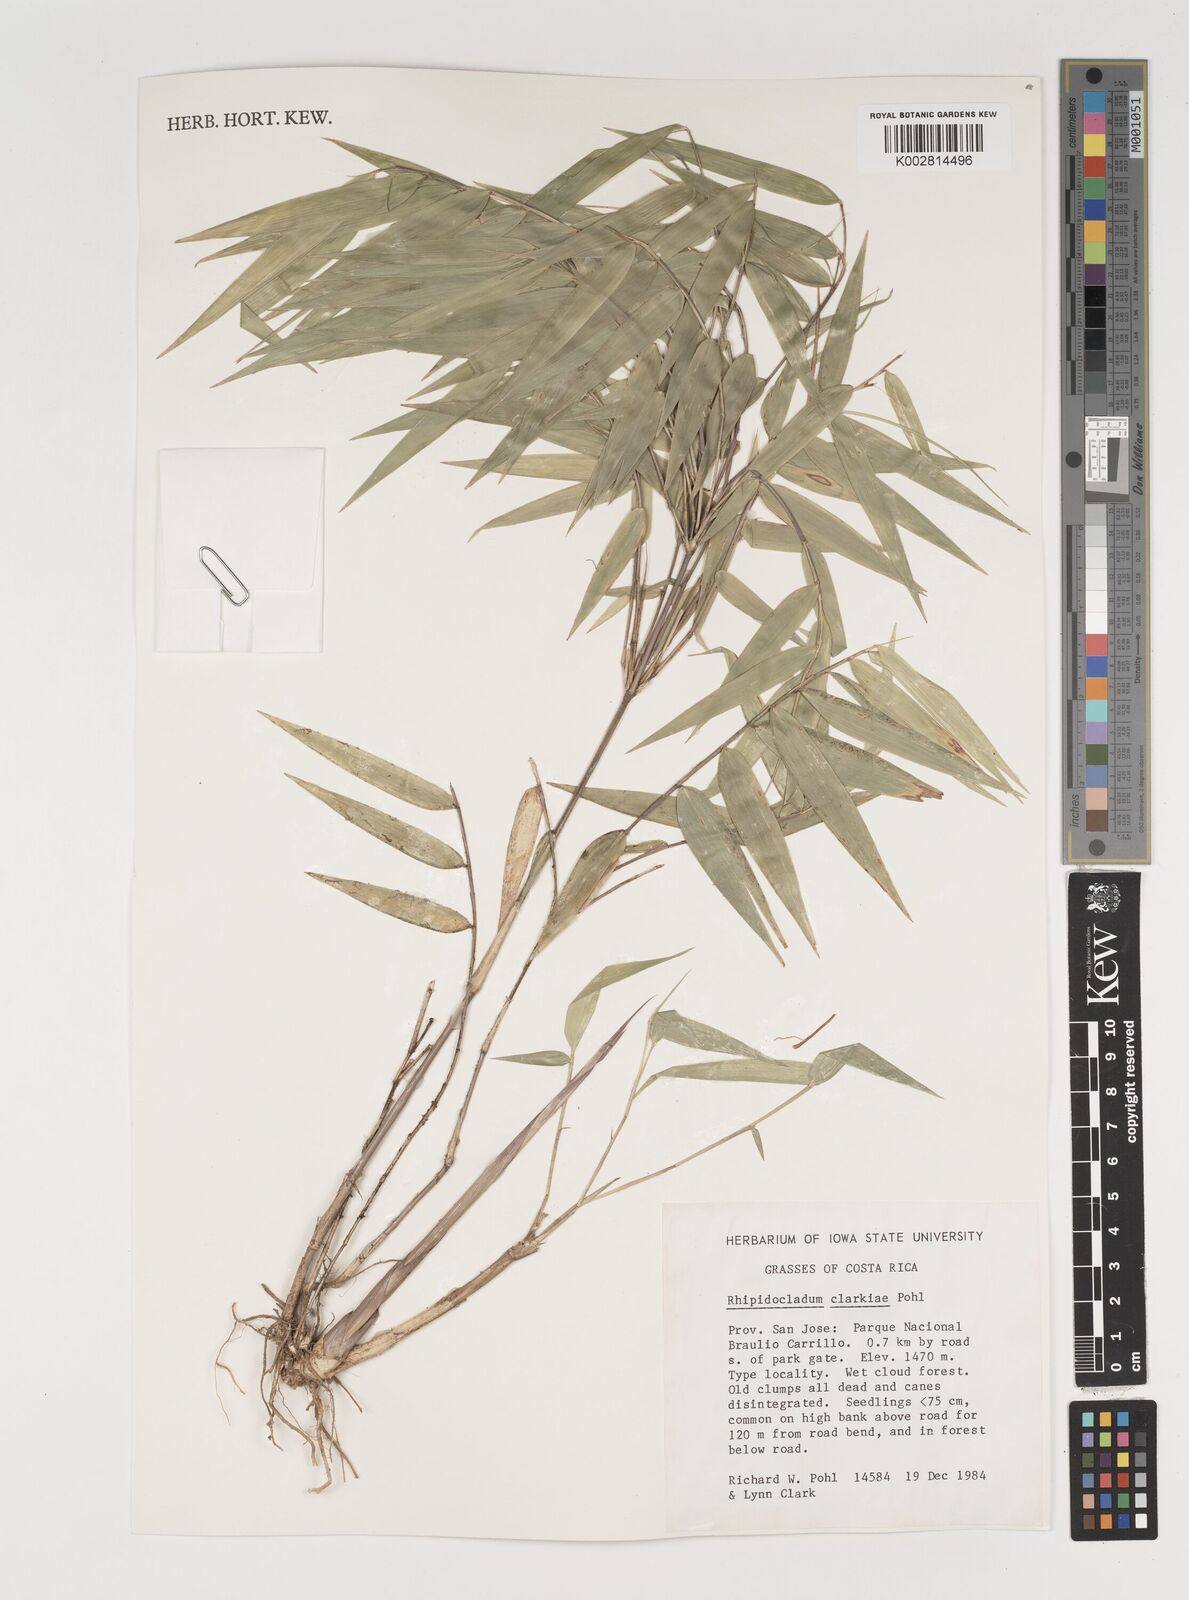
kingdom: Plantae
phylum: Tracheophyta
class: Liliopsida
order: Poales
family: Poaceae
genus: Rhipidocladum
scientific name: Rhipidocladum clarkiae
